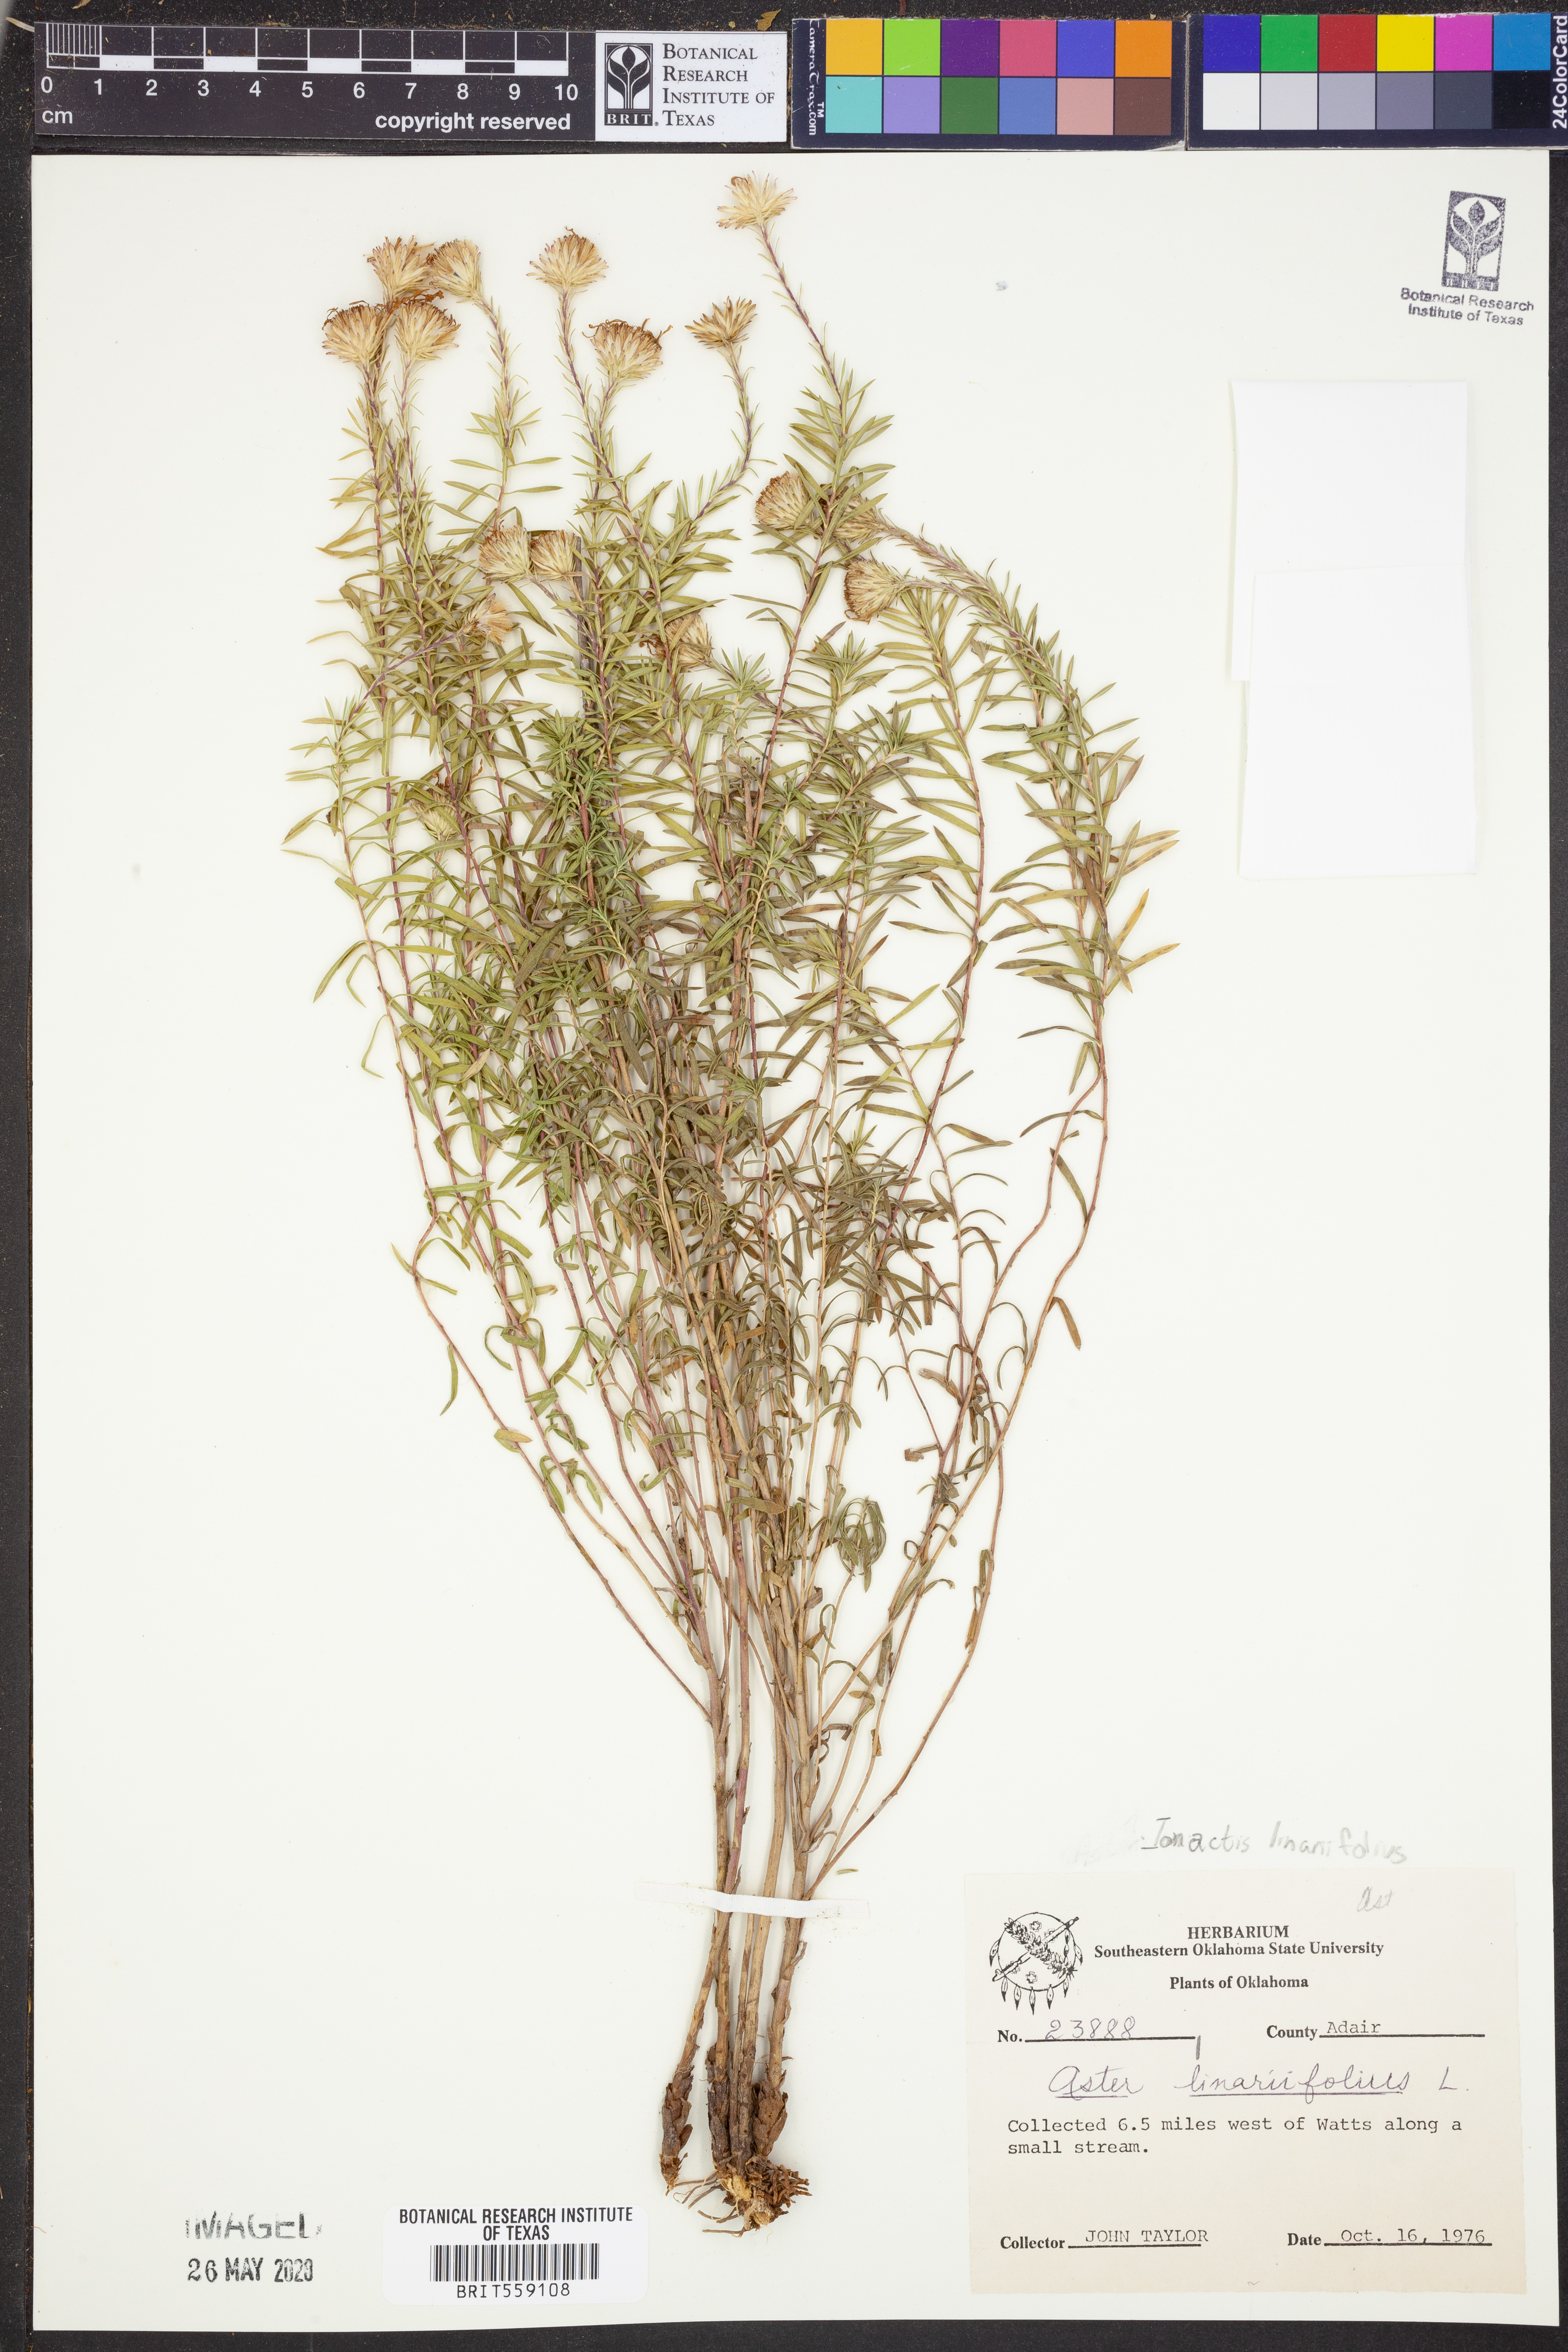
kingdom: Plantae
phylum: Tracheophyta
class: Magnoliopsida
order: Asterales
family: Asteraceae
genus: Ionactis
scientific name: Ionactis linariifolia
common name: Flax-leaf aster
